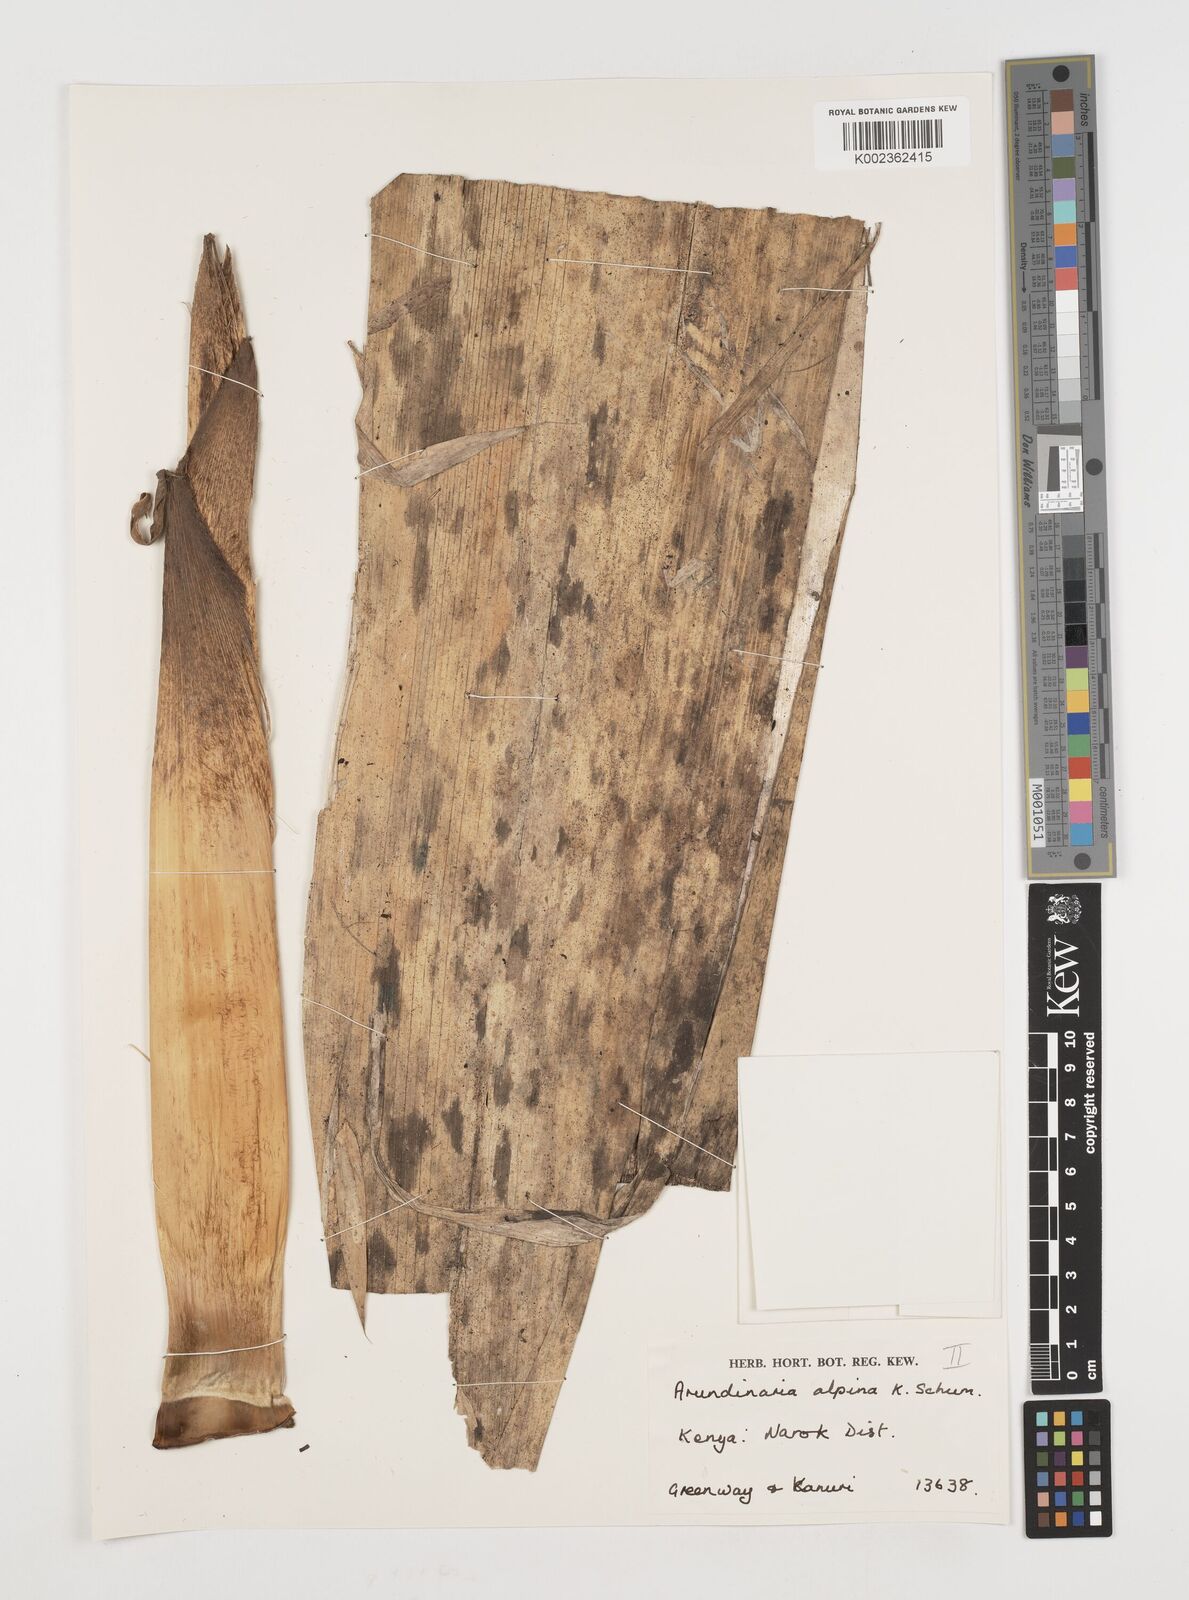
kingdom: Plantae
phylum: Tracheophyta
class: Liliopsida
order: Poales
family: Poaceae
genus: Oldeania
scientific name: Oldeania alpina
